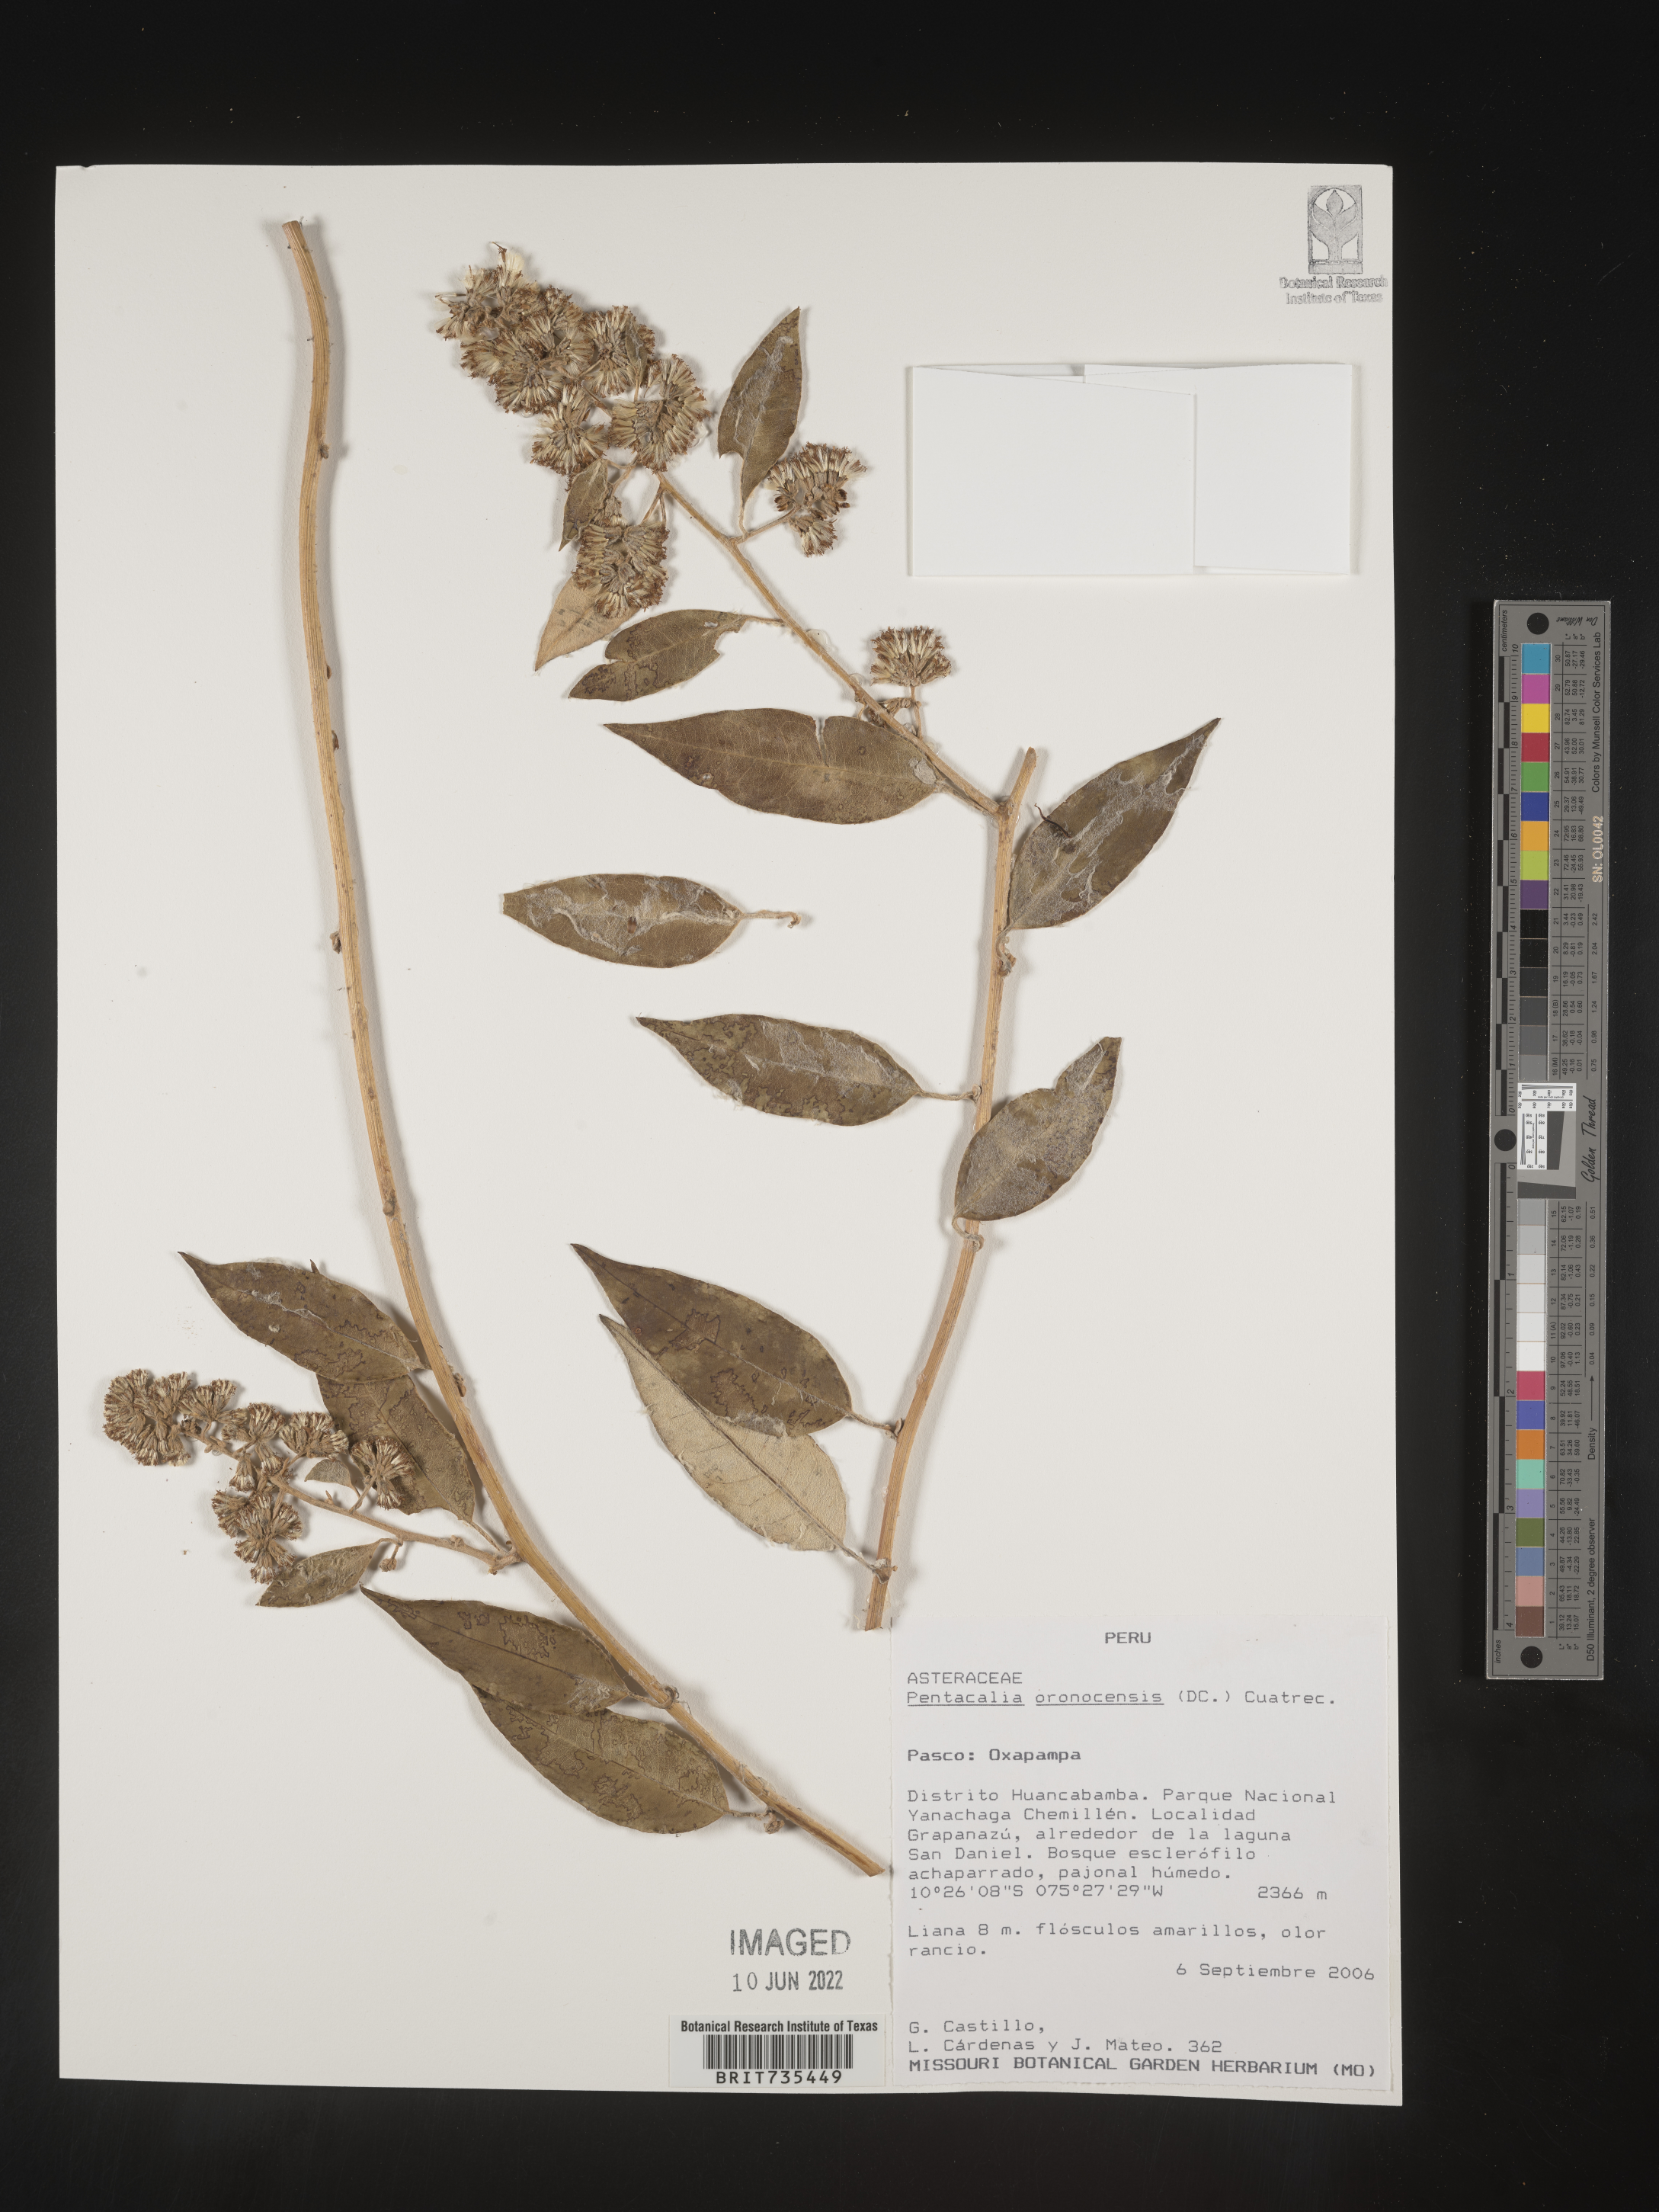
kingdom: Plantae
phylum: Tracheophyta
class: Magnoliopsida
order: Asterales
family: Asteraceae
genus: Pentacalia
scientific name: Pentacalia
